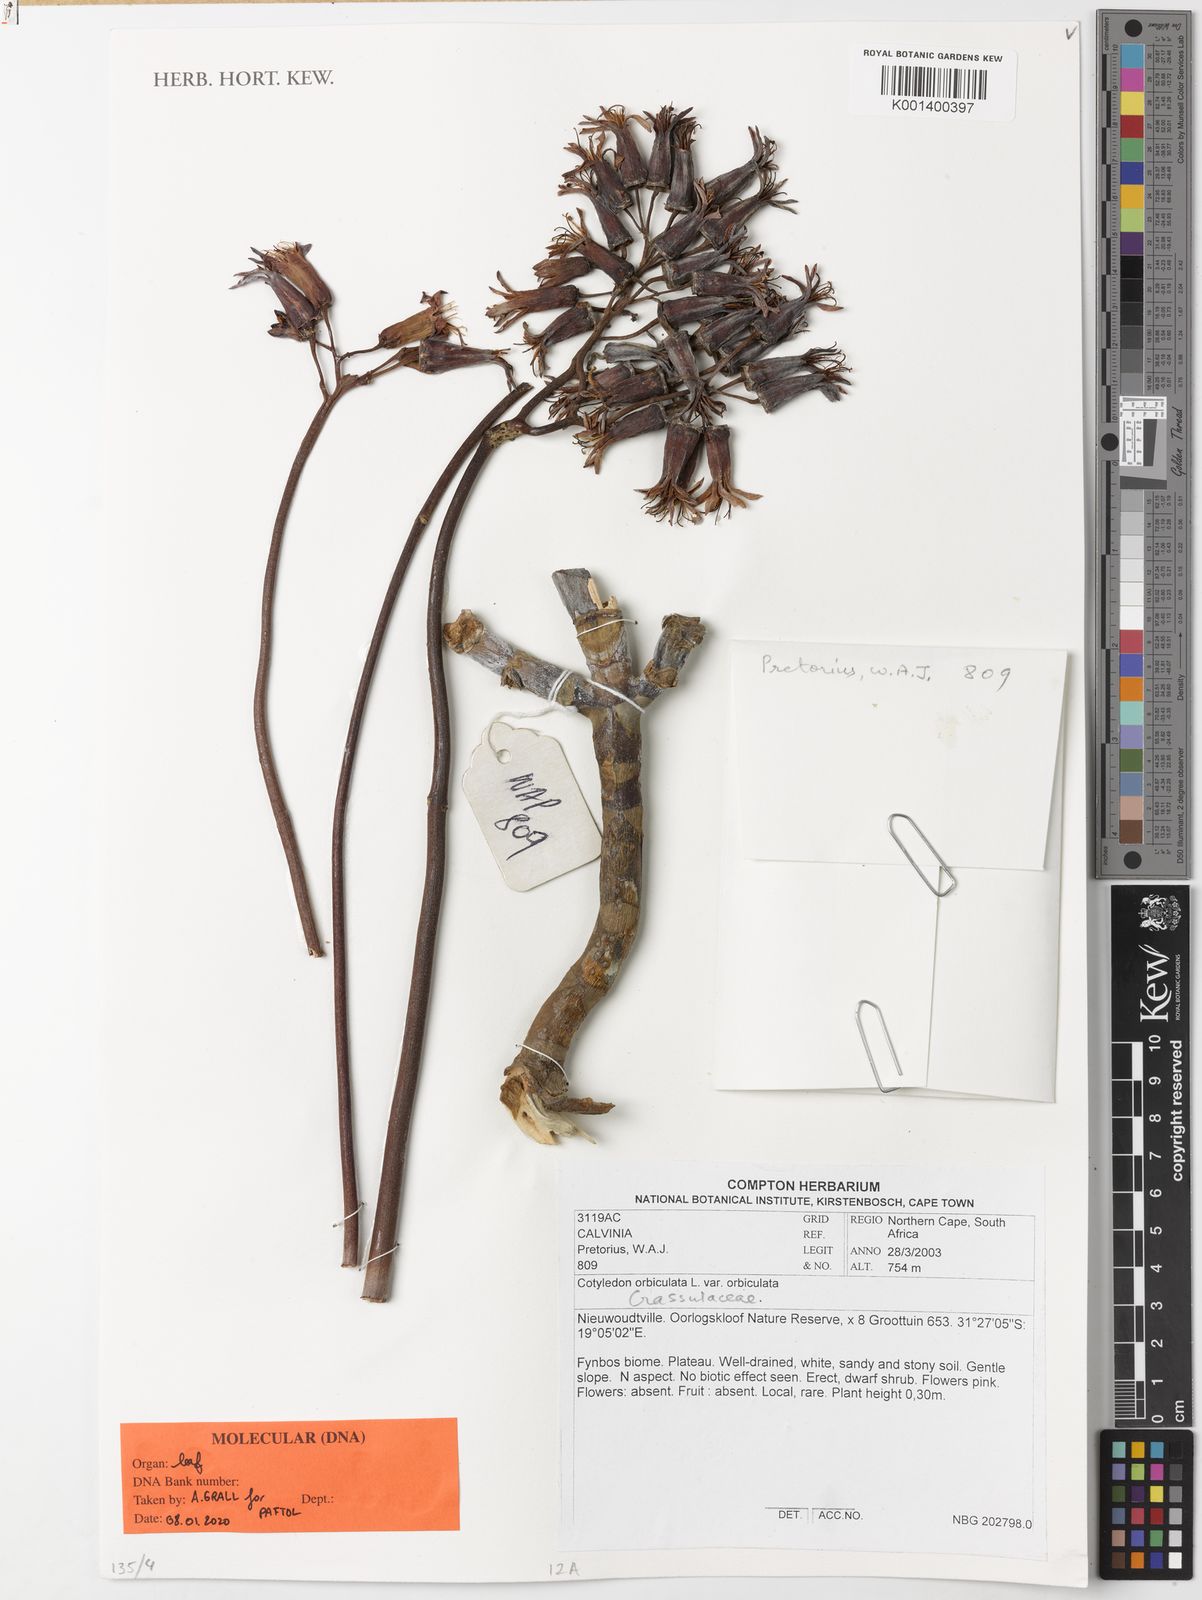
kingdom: Plantae
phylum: Tracheophyta
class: Magnoliopsida
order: Saxifragales
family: Crassulaceae
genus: Cotyledon
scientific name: Cotyledon orbiculata
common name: Pig's ear
